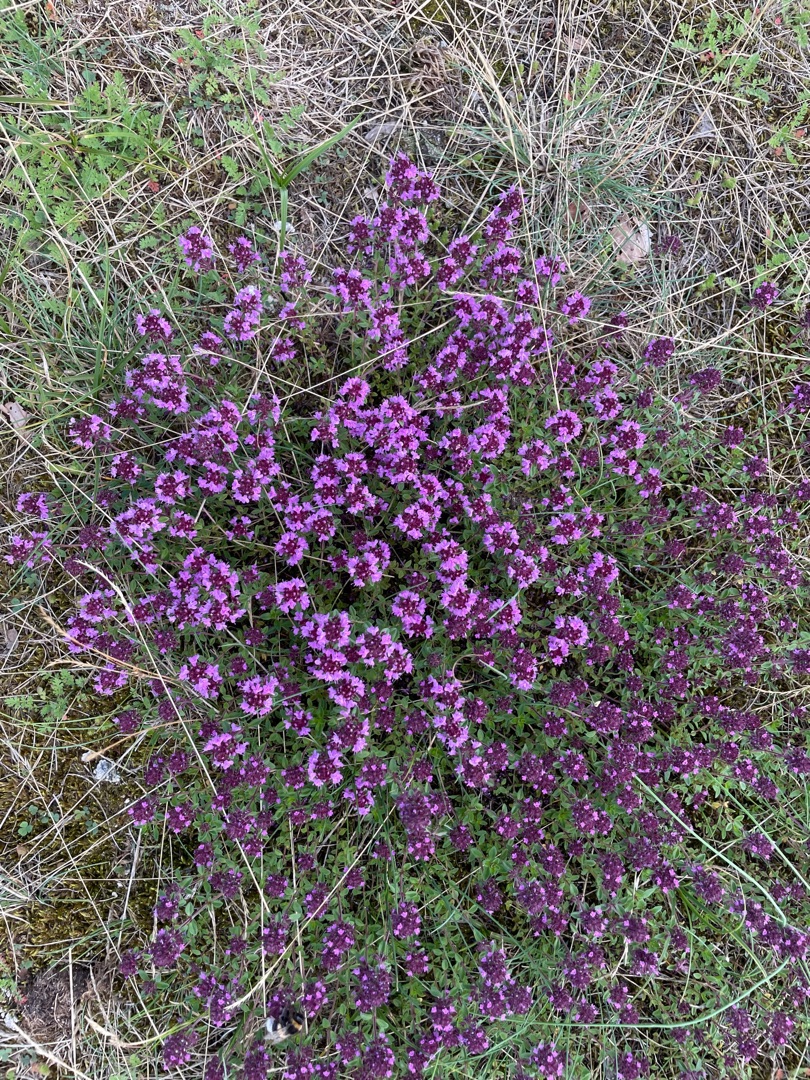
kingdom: Plantae
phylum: Tracheophyta
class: Magnoliopsida
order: Lamiales
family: Lamiaceae
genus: Thymus
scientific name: Thymus
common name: Timianslægten
